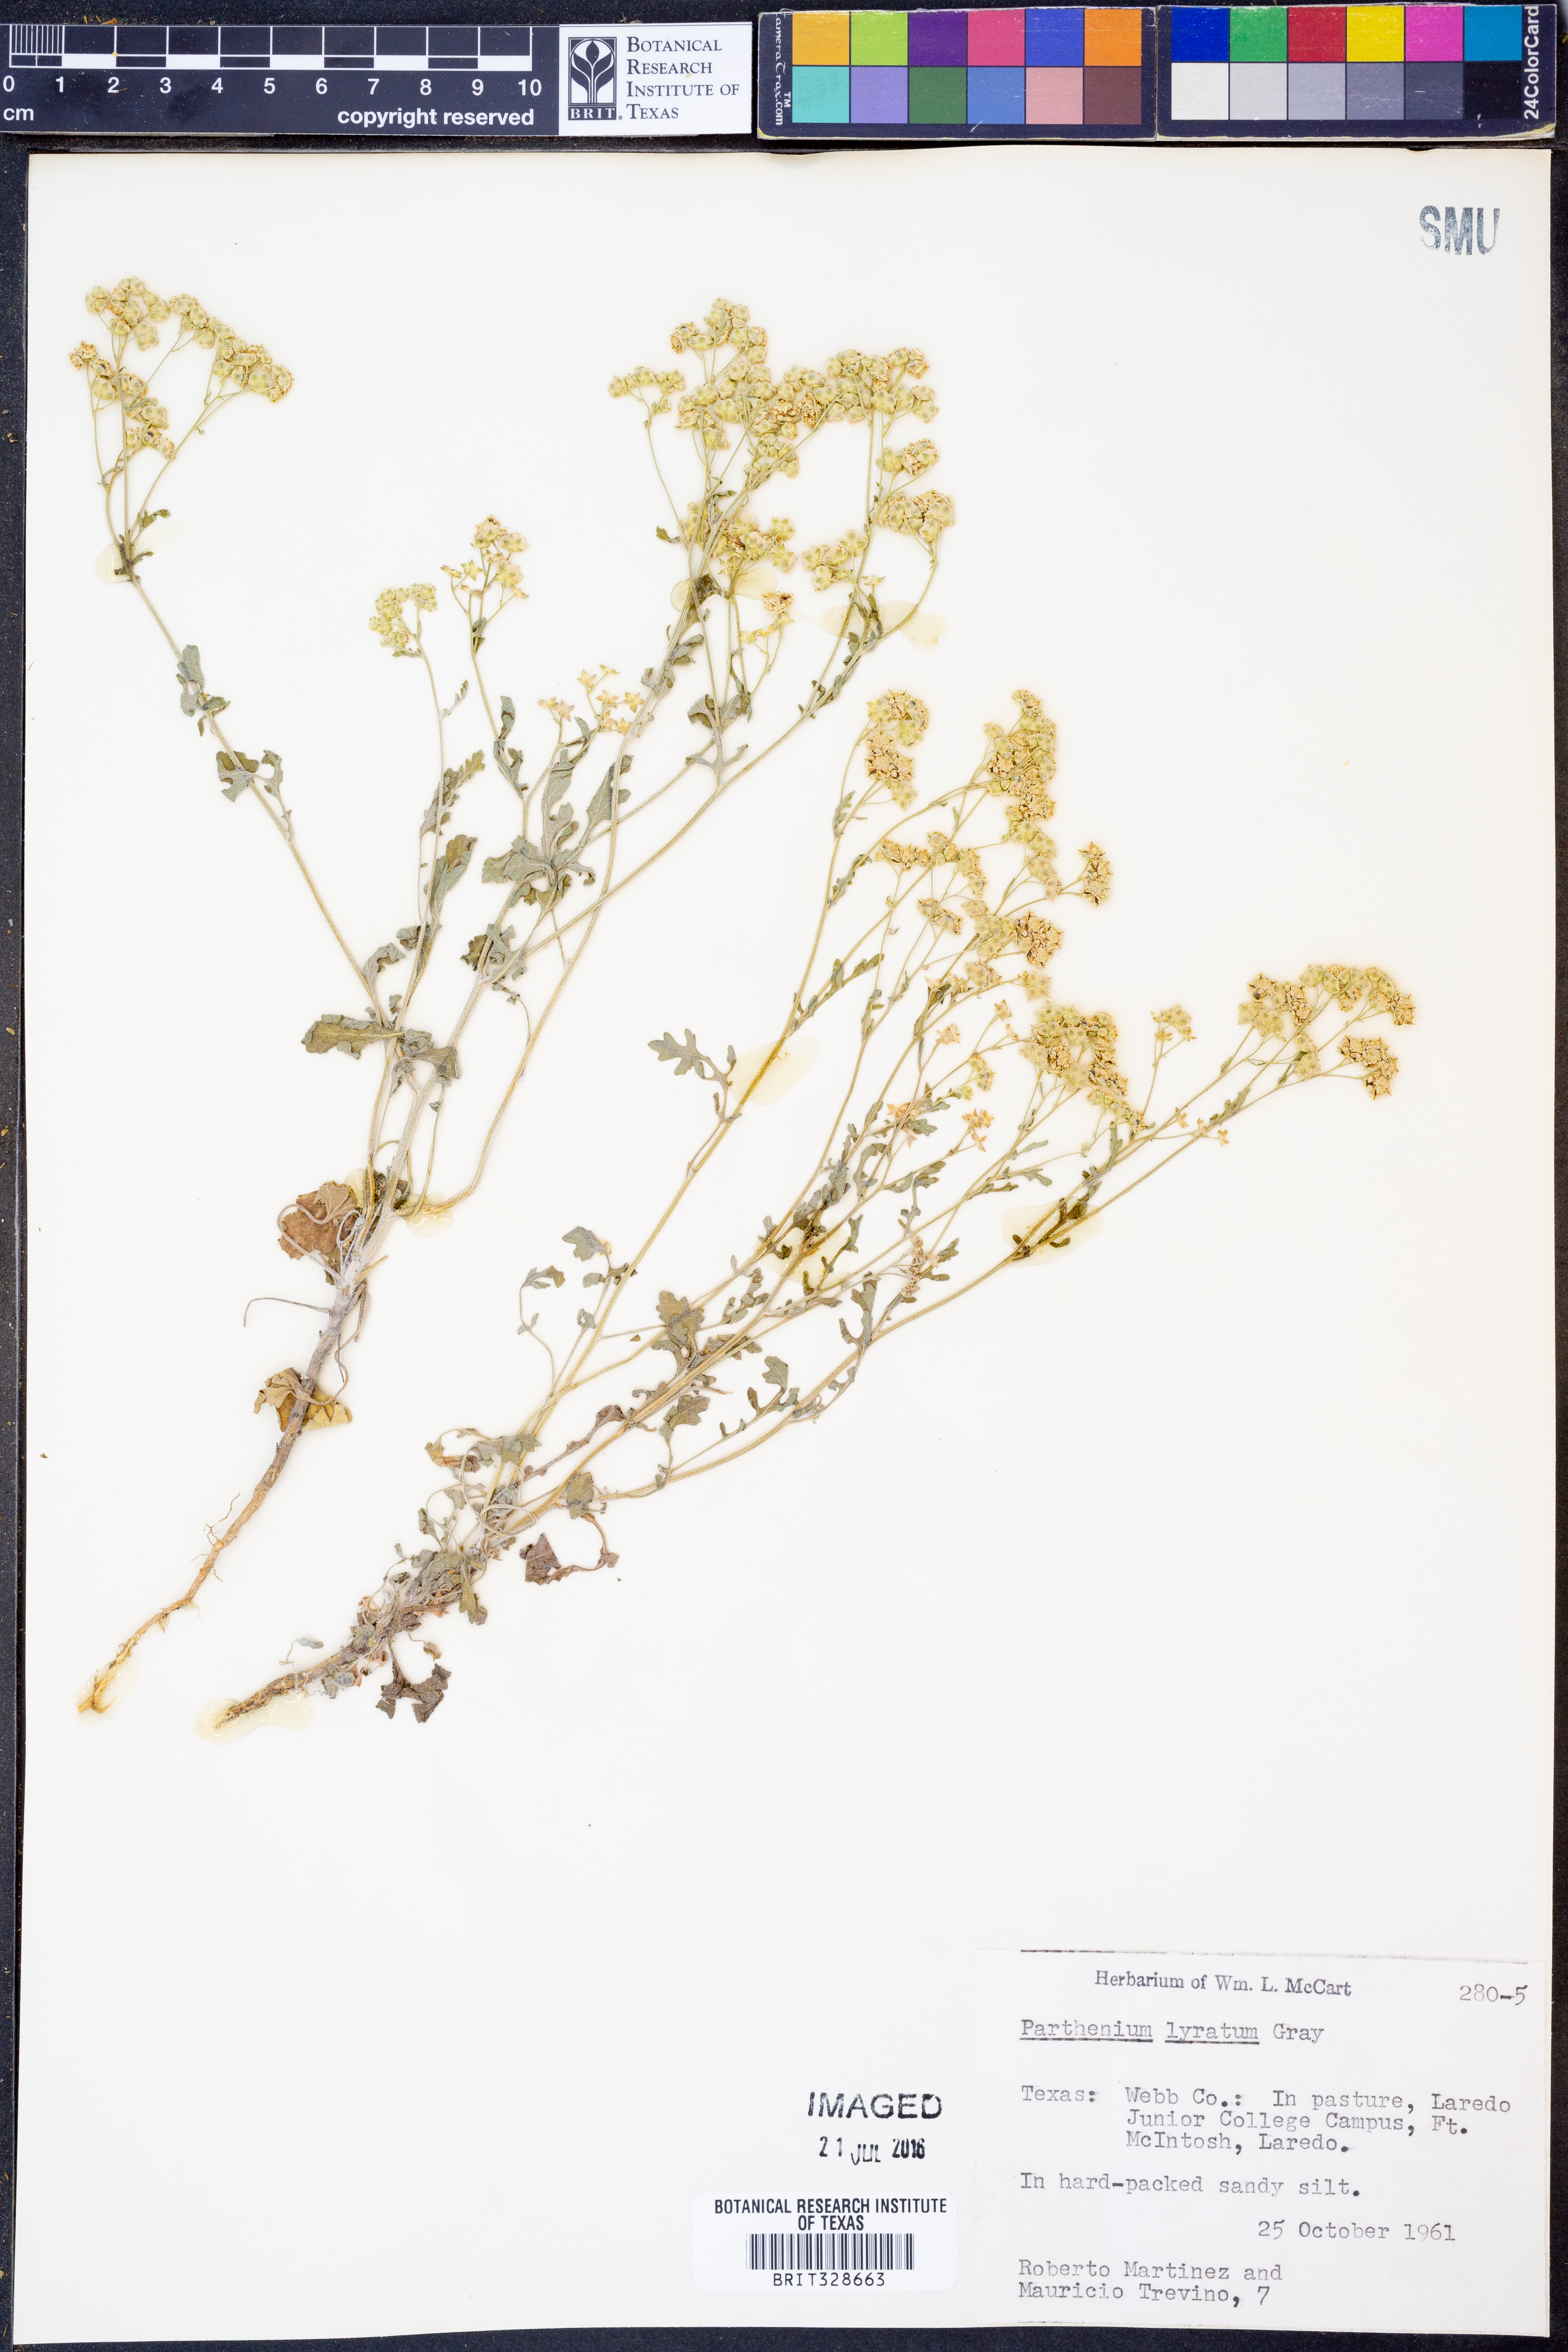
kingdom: Plantae
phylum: Tracheophyta
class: Magnoliopsida
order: Asterales
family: Asteraceae
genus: Parthenium
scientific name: Parthenium confertum
